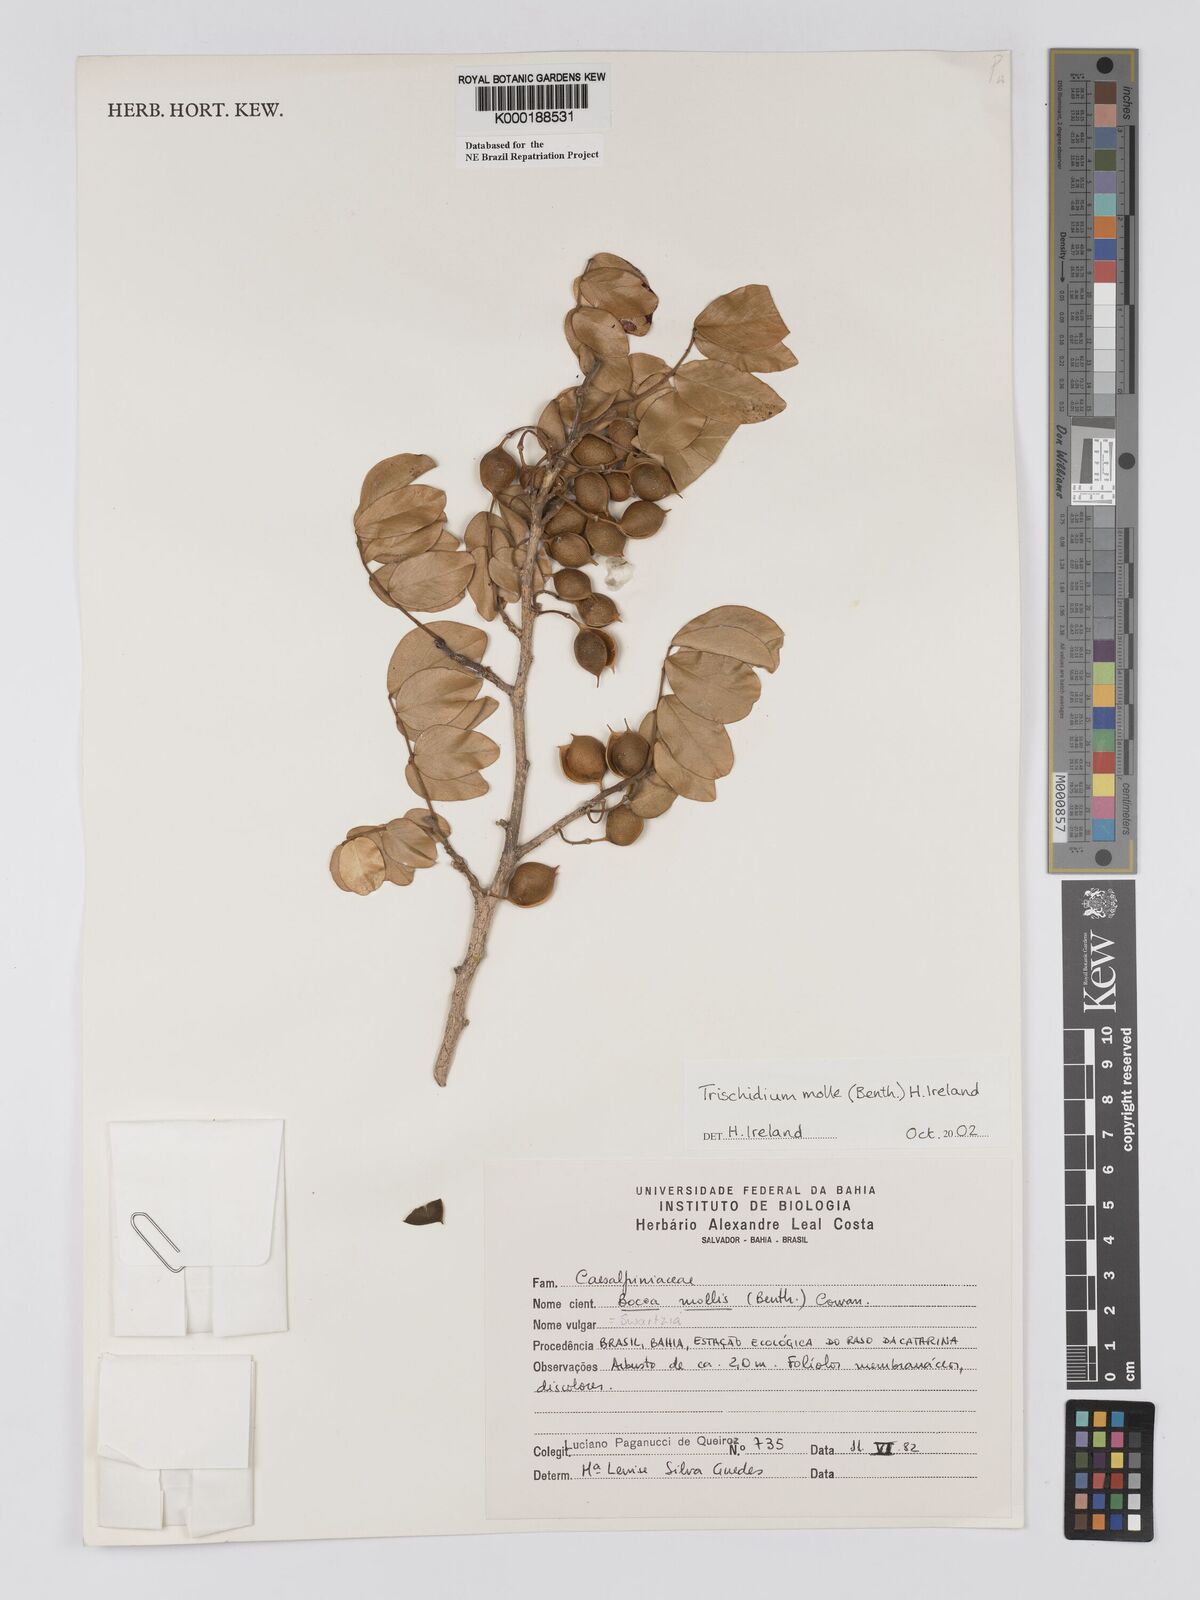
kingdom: Plantae
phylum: Tracheophyta
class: Magnoliopsida
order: Fabales
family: Fabaceae
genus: Trischidium
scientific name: Trischidium
